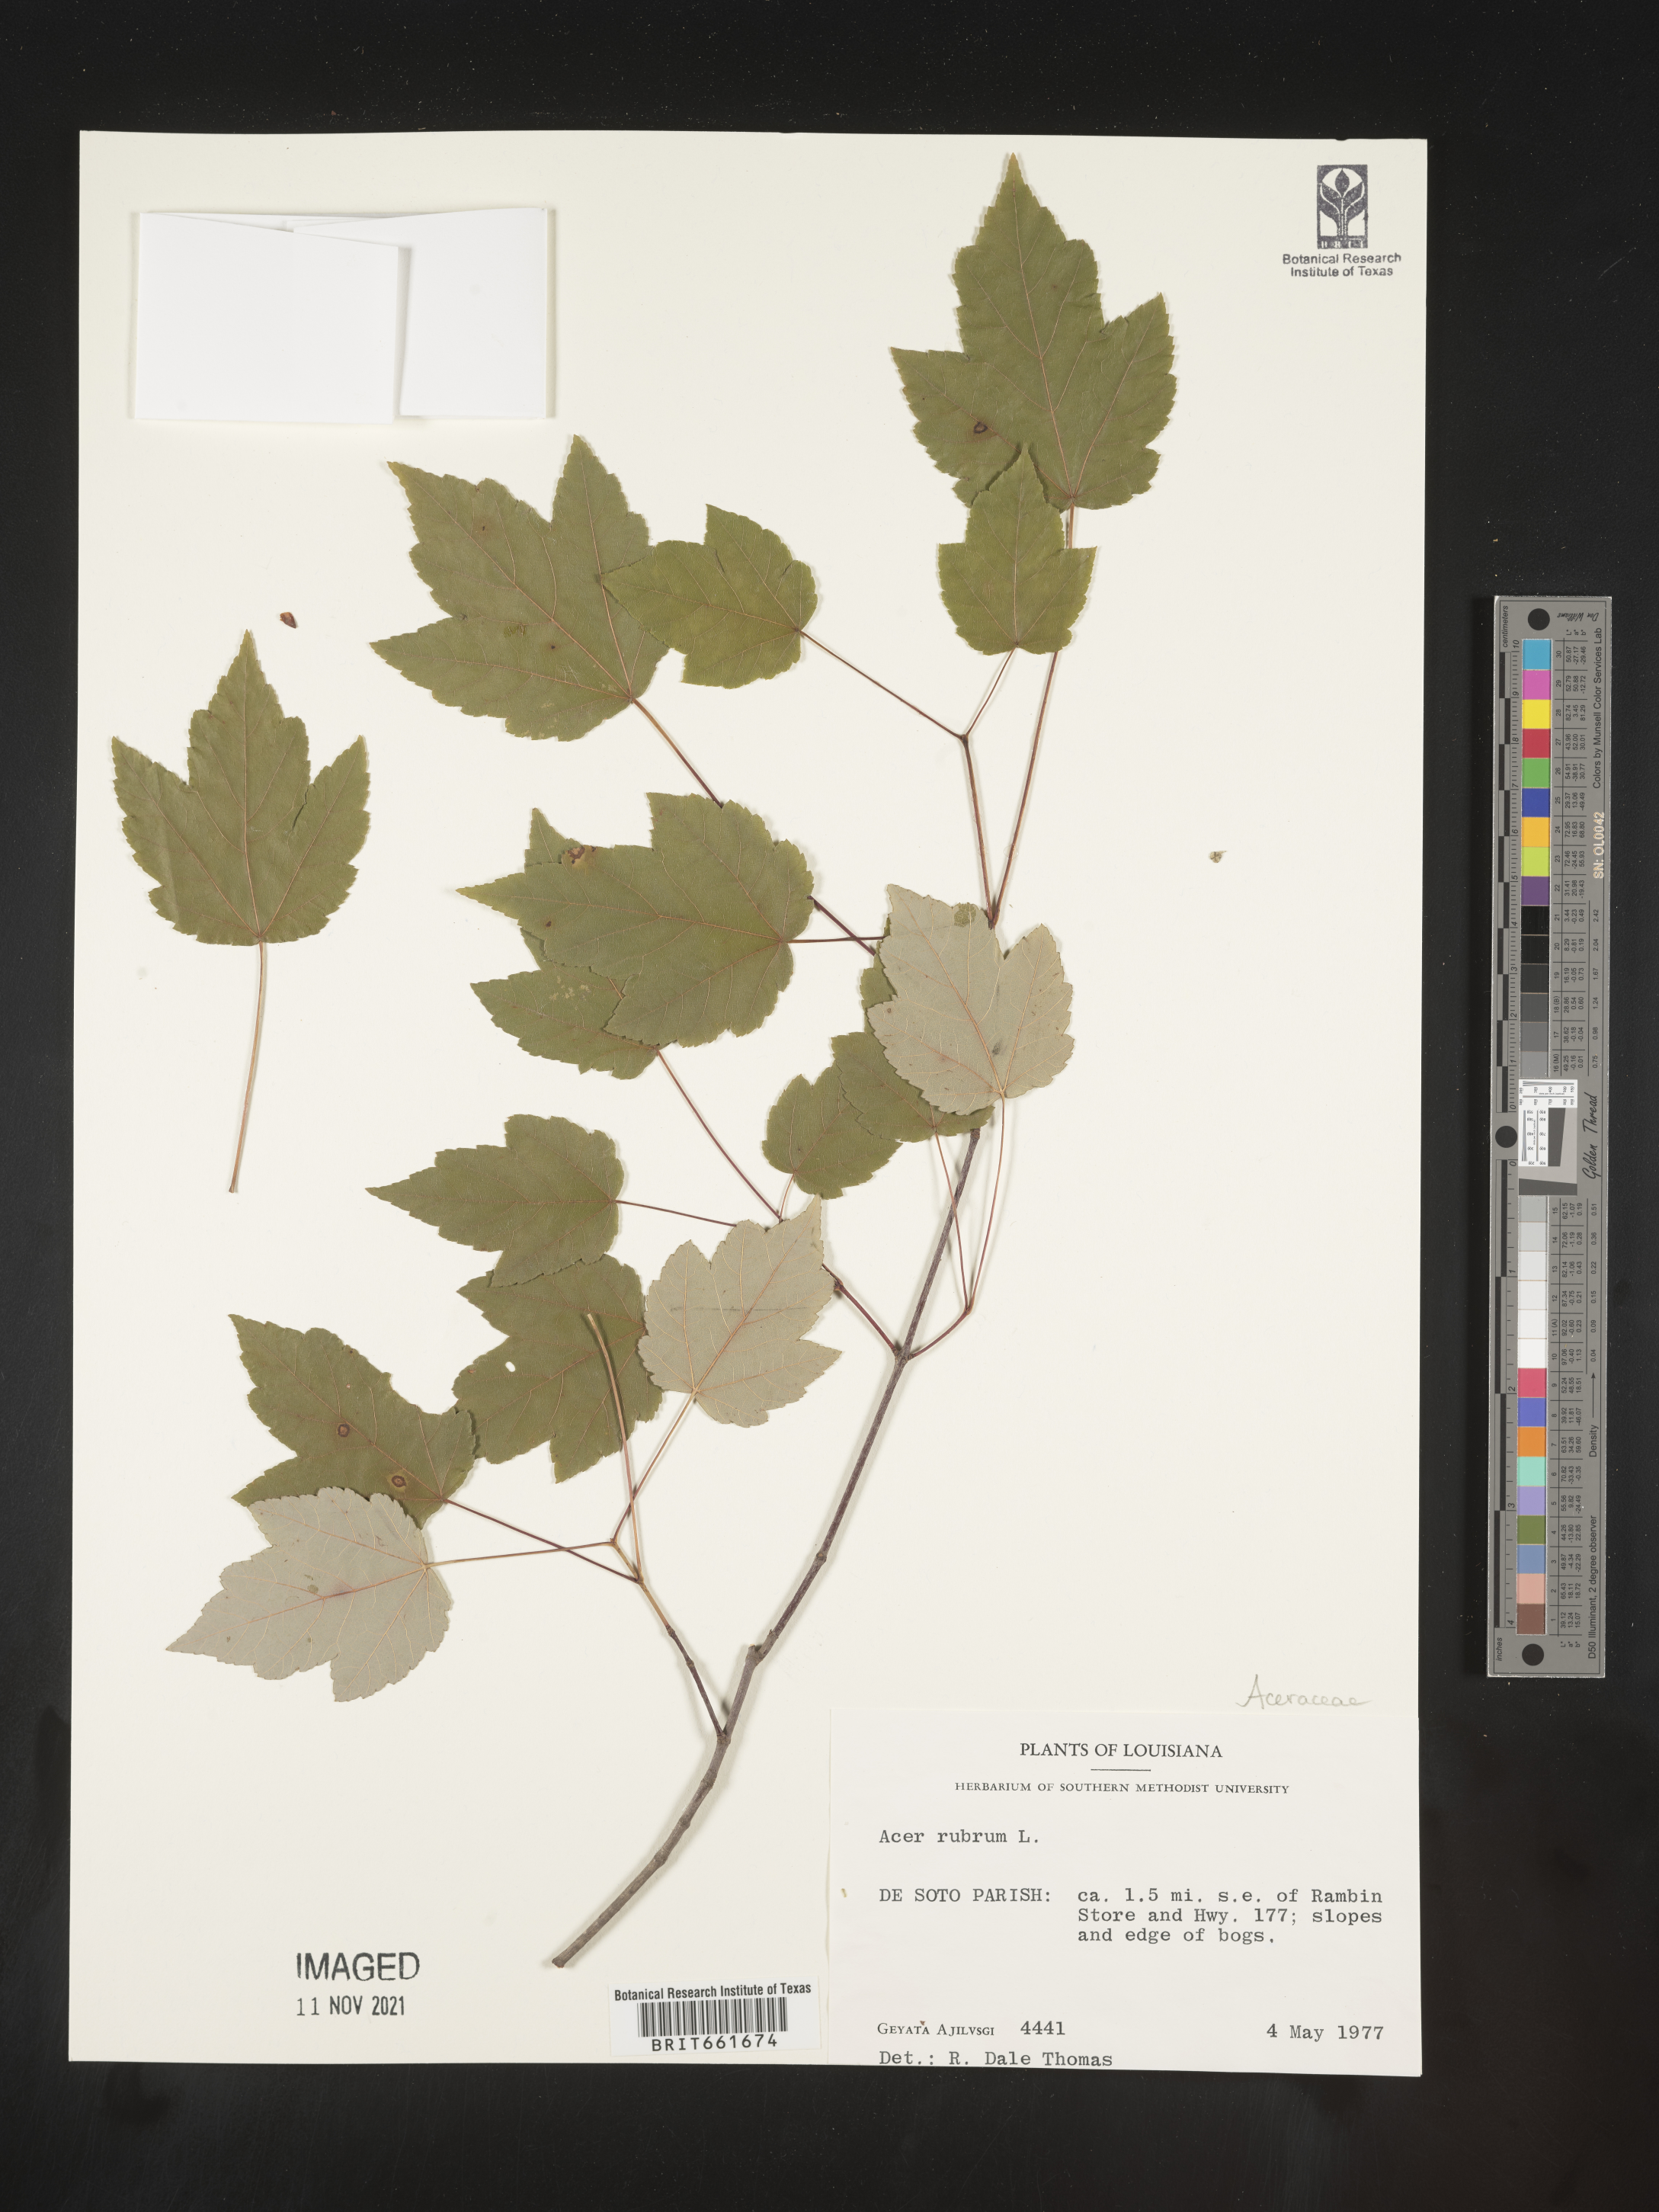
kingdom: Plantae
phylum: Tracheophyta
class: Magnoliopsida
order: Sapindales
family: Sapindaceae
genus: Acer
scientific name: Acer rubrum
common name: Red maple
